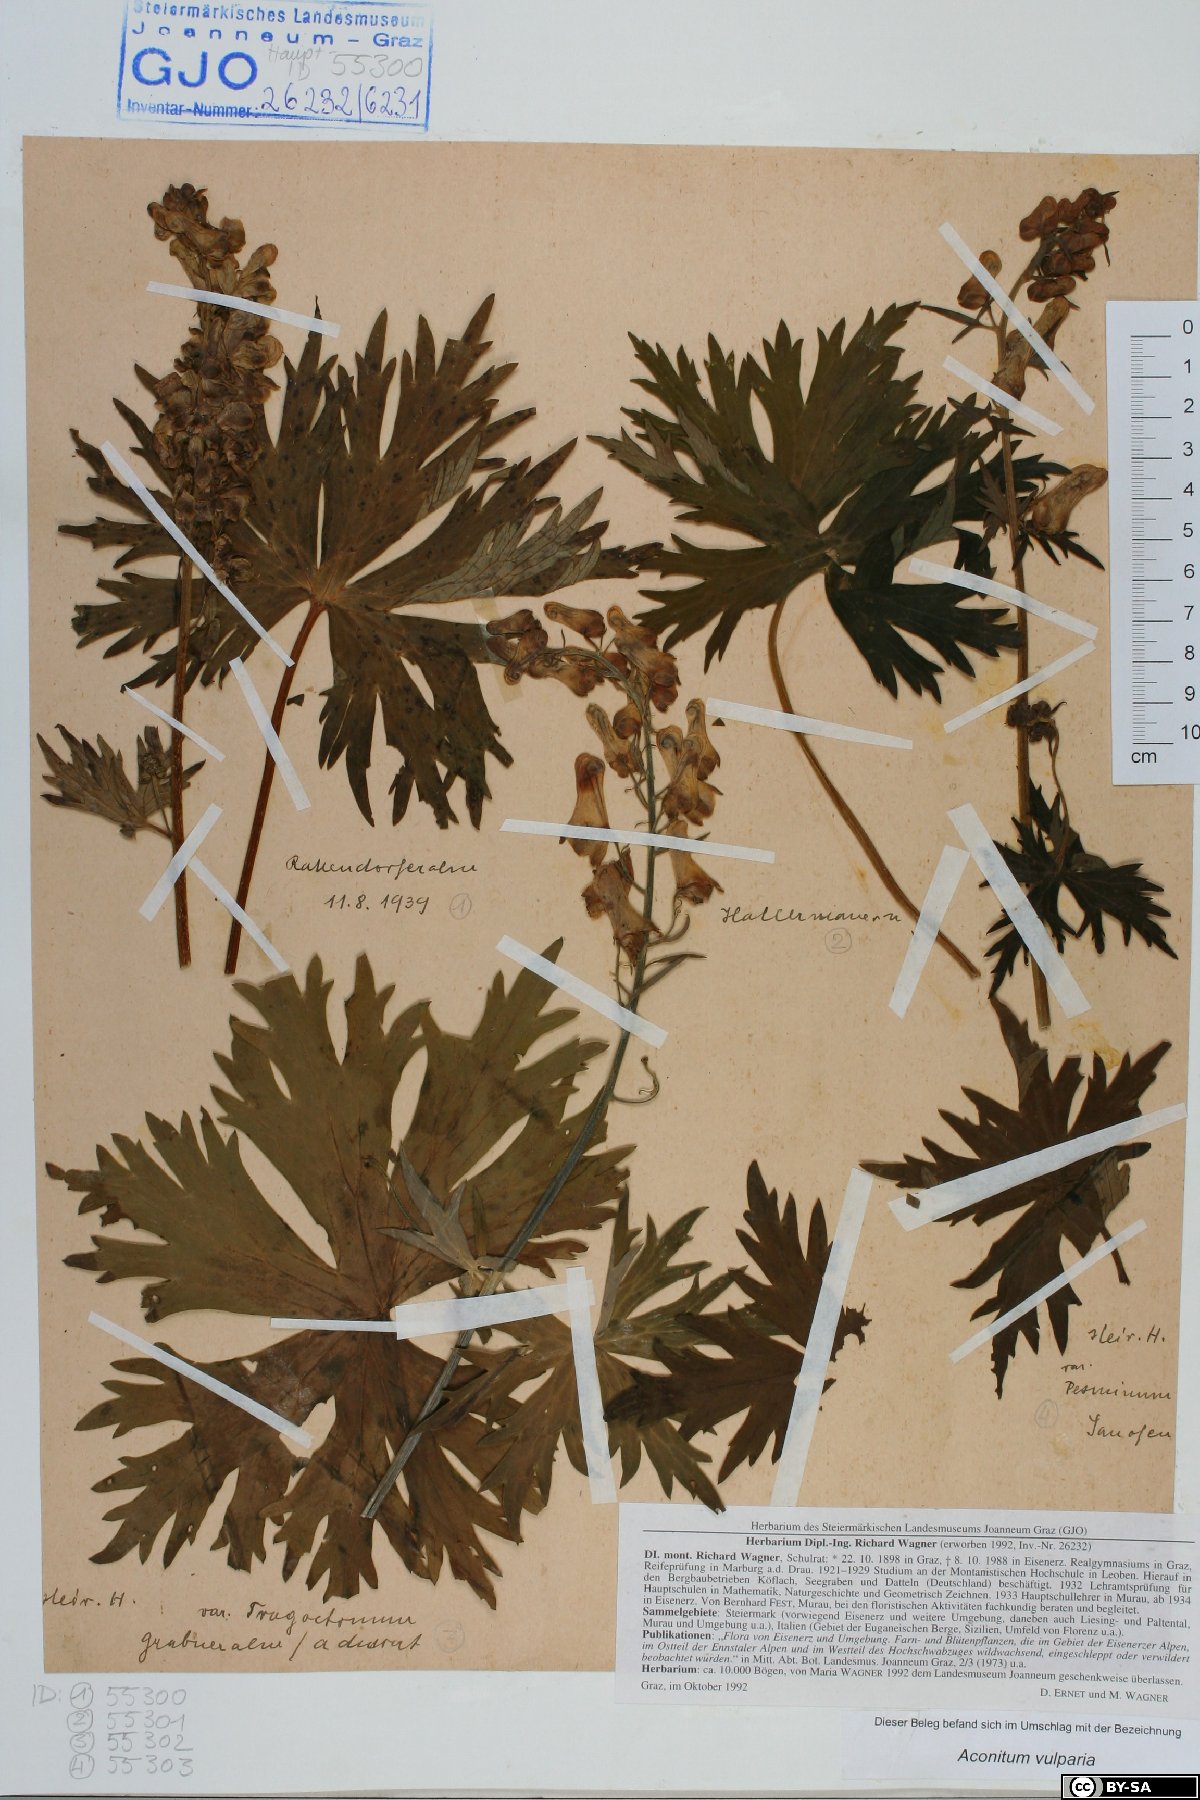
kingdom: Plantae
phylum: Tracheophyta
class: Magnoliopsida
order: Ranunculales
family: Ranunculaceae
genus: Aconitum
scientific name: Aconitum lycoctonum
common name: Wolf's-bane
